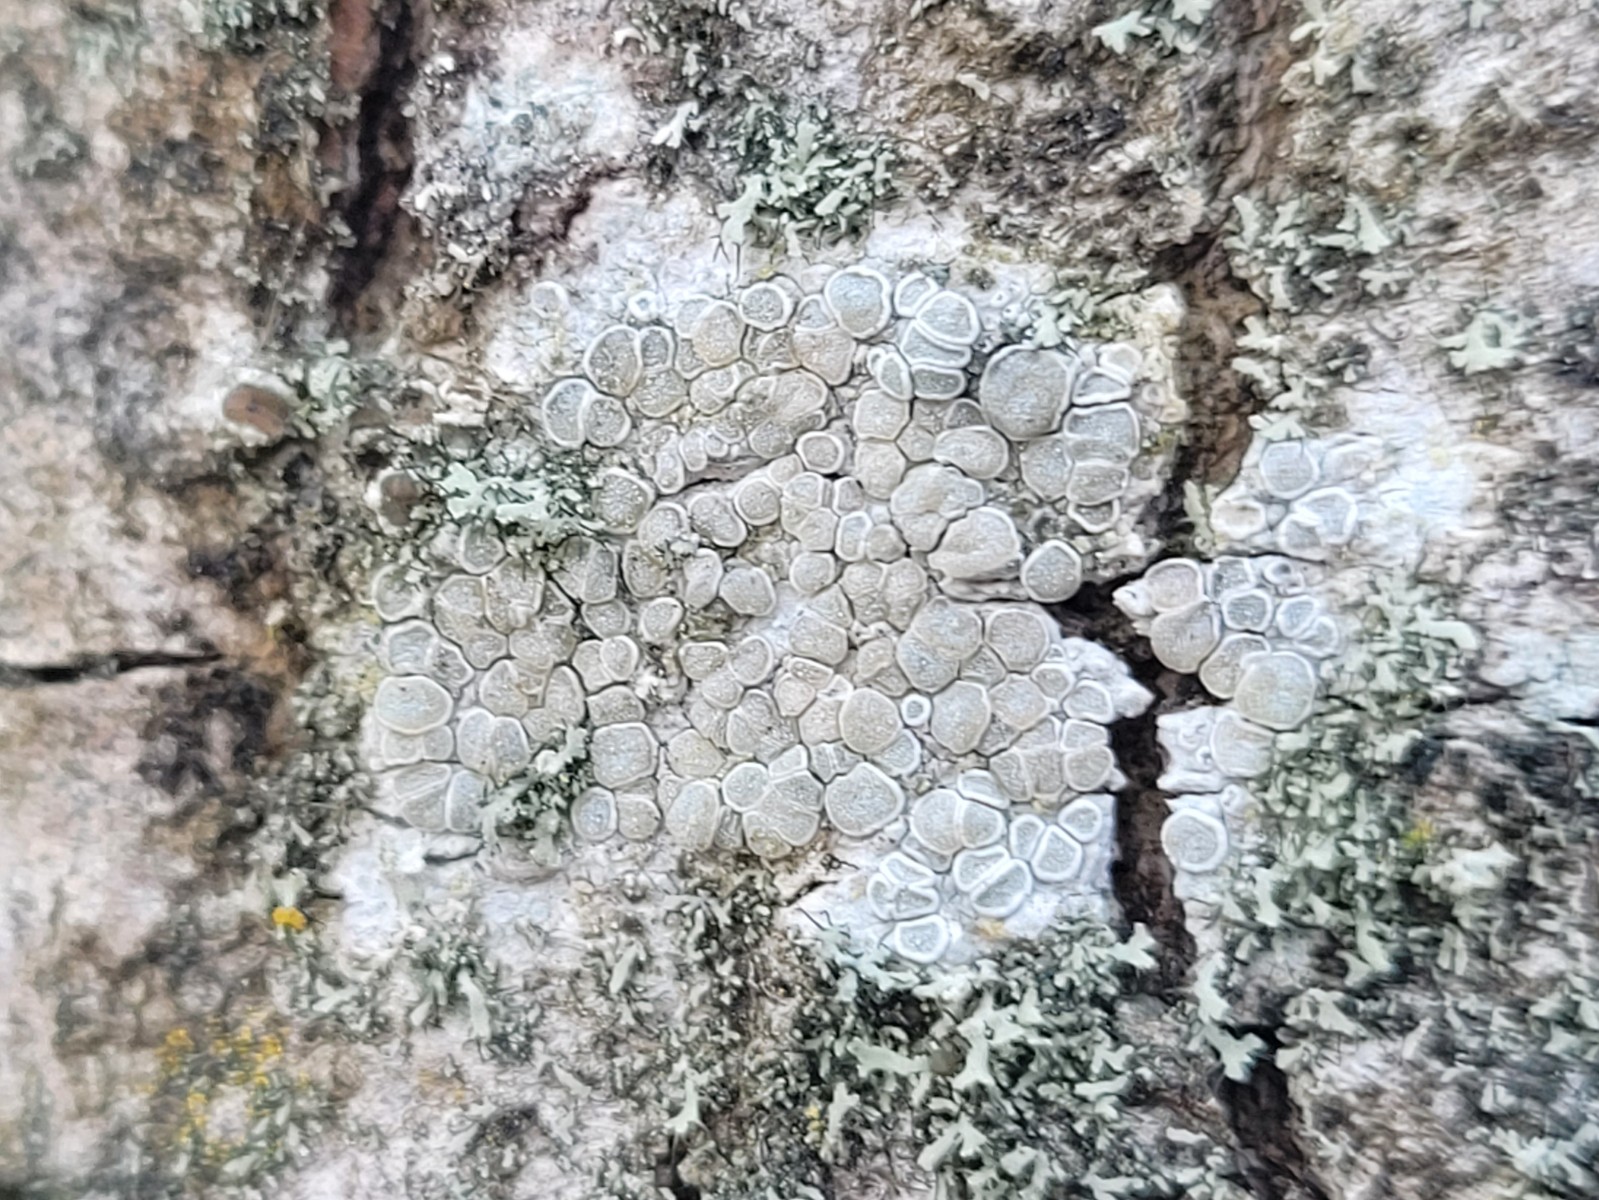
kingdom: Fungi
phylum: Ascomycota
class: Lecanoromycetes
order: Lecanorales
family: Lecanoraceae
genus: Glaucomaria
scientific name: Glaucomaria carpinea
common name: hviddugget kantskivelav
